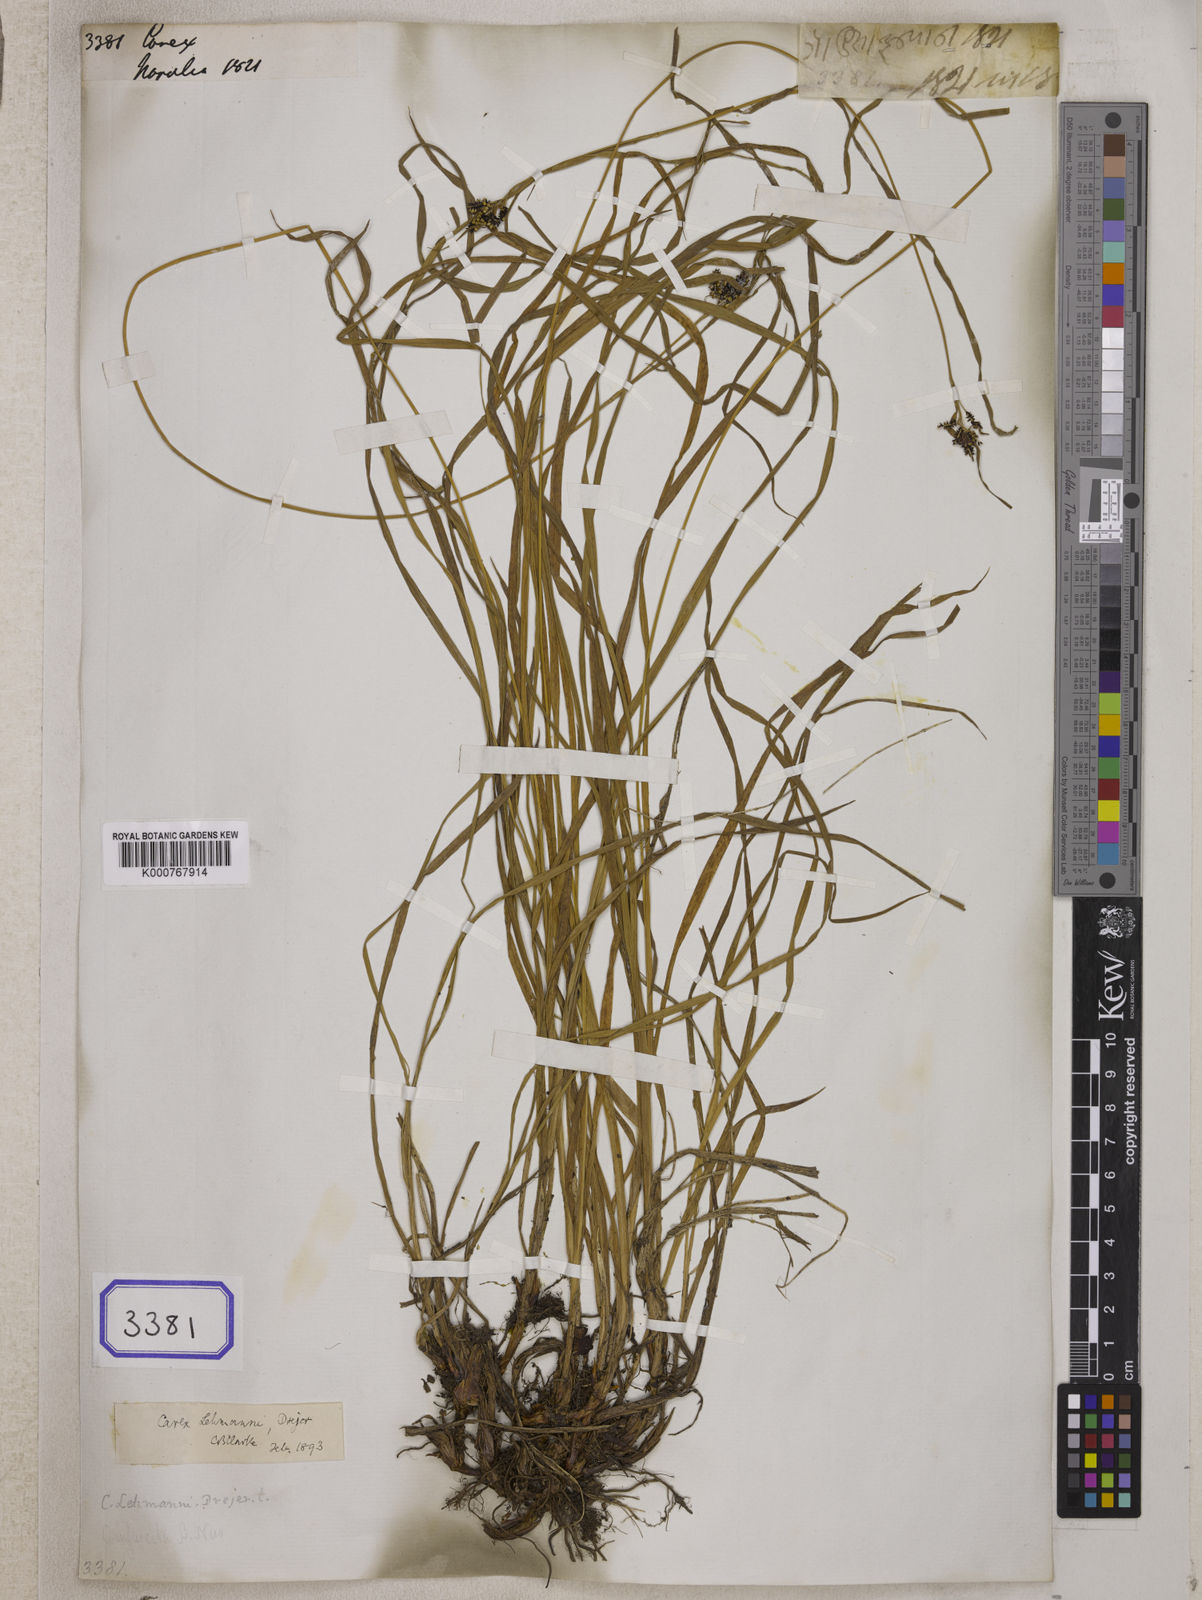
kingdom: Plantae
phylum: Tracheophyta
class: Liliopsida
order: Poales
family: Cyperaceae
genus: Carex
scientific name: Carex
